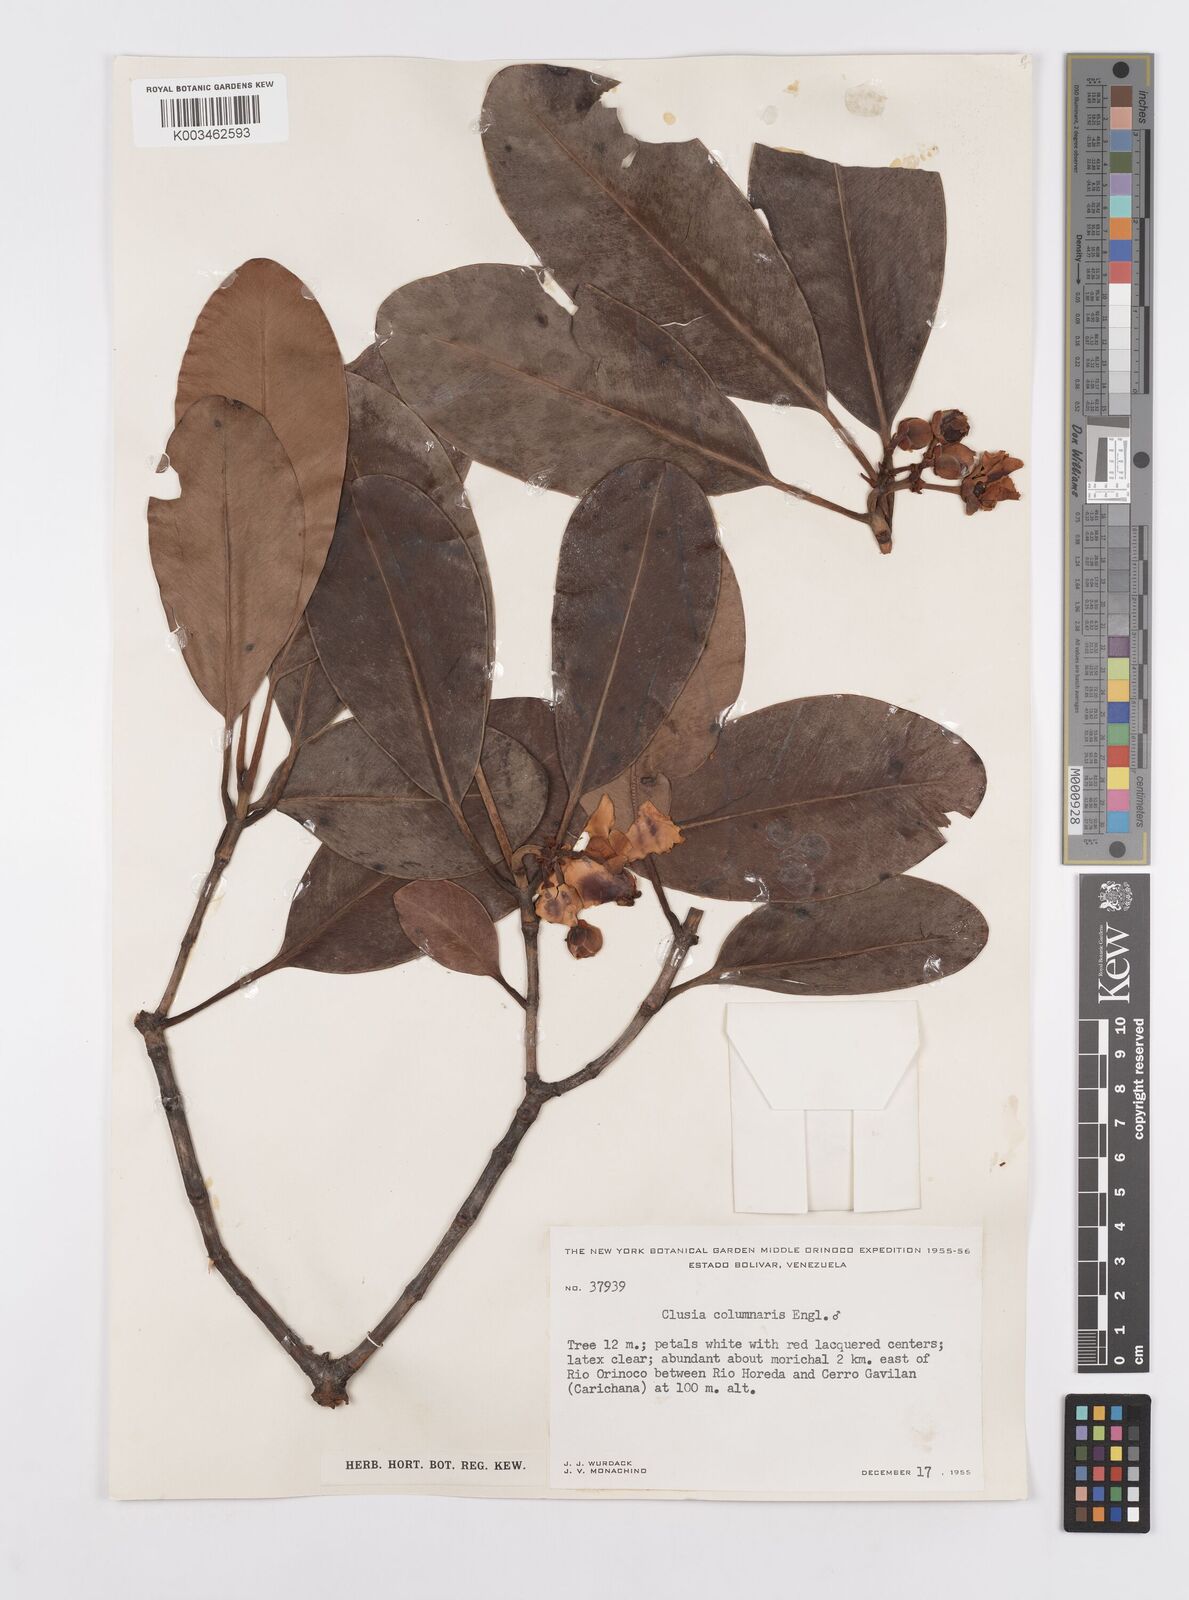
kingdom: Plantae
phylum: Tracheophyta
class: Magnoliopsida
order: Malpighiales
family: Clusiaceae
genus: Clusia
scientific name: Clusia columnaris
